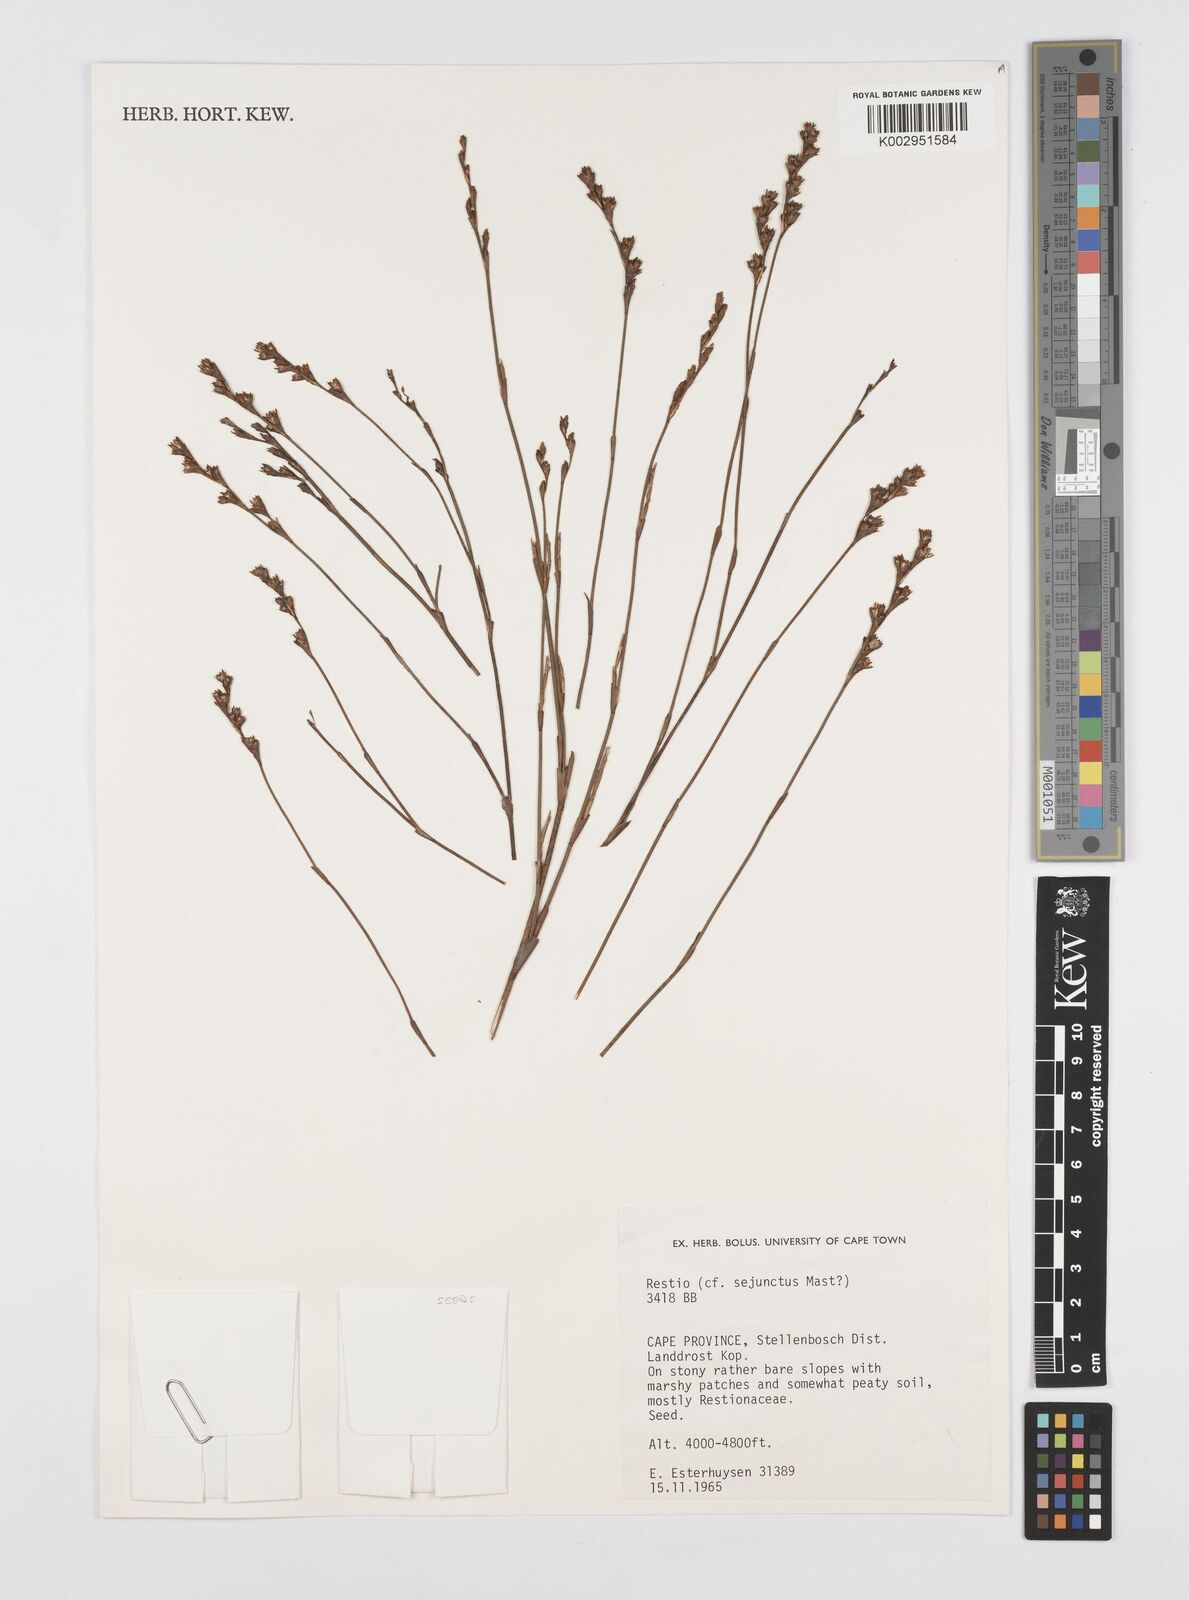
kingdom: Plantae
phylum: Tracheophyta
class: Liliopsida
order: Poales
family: Restionaceae
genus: Restio
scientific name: Restio sejunctus
